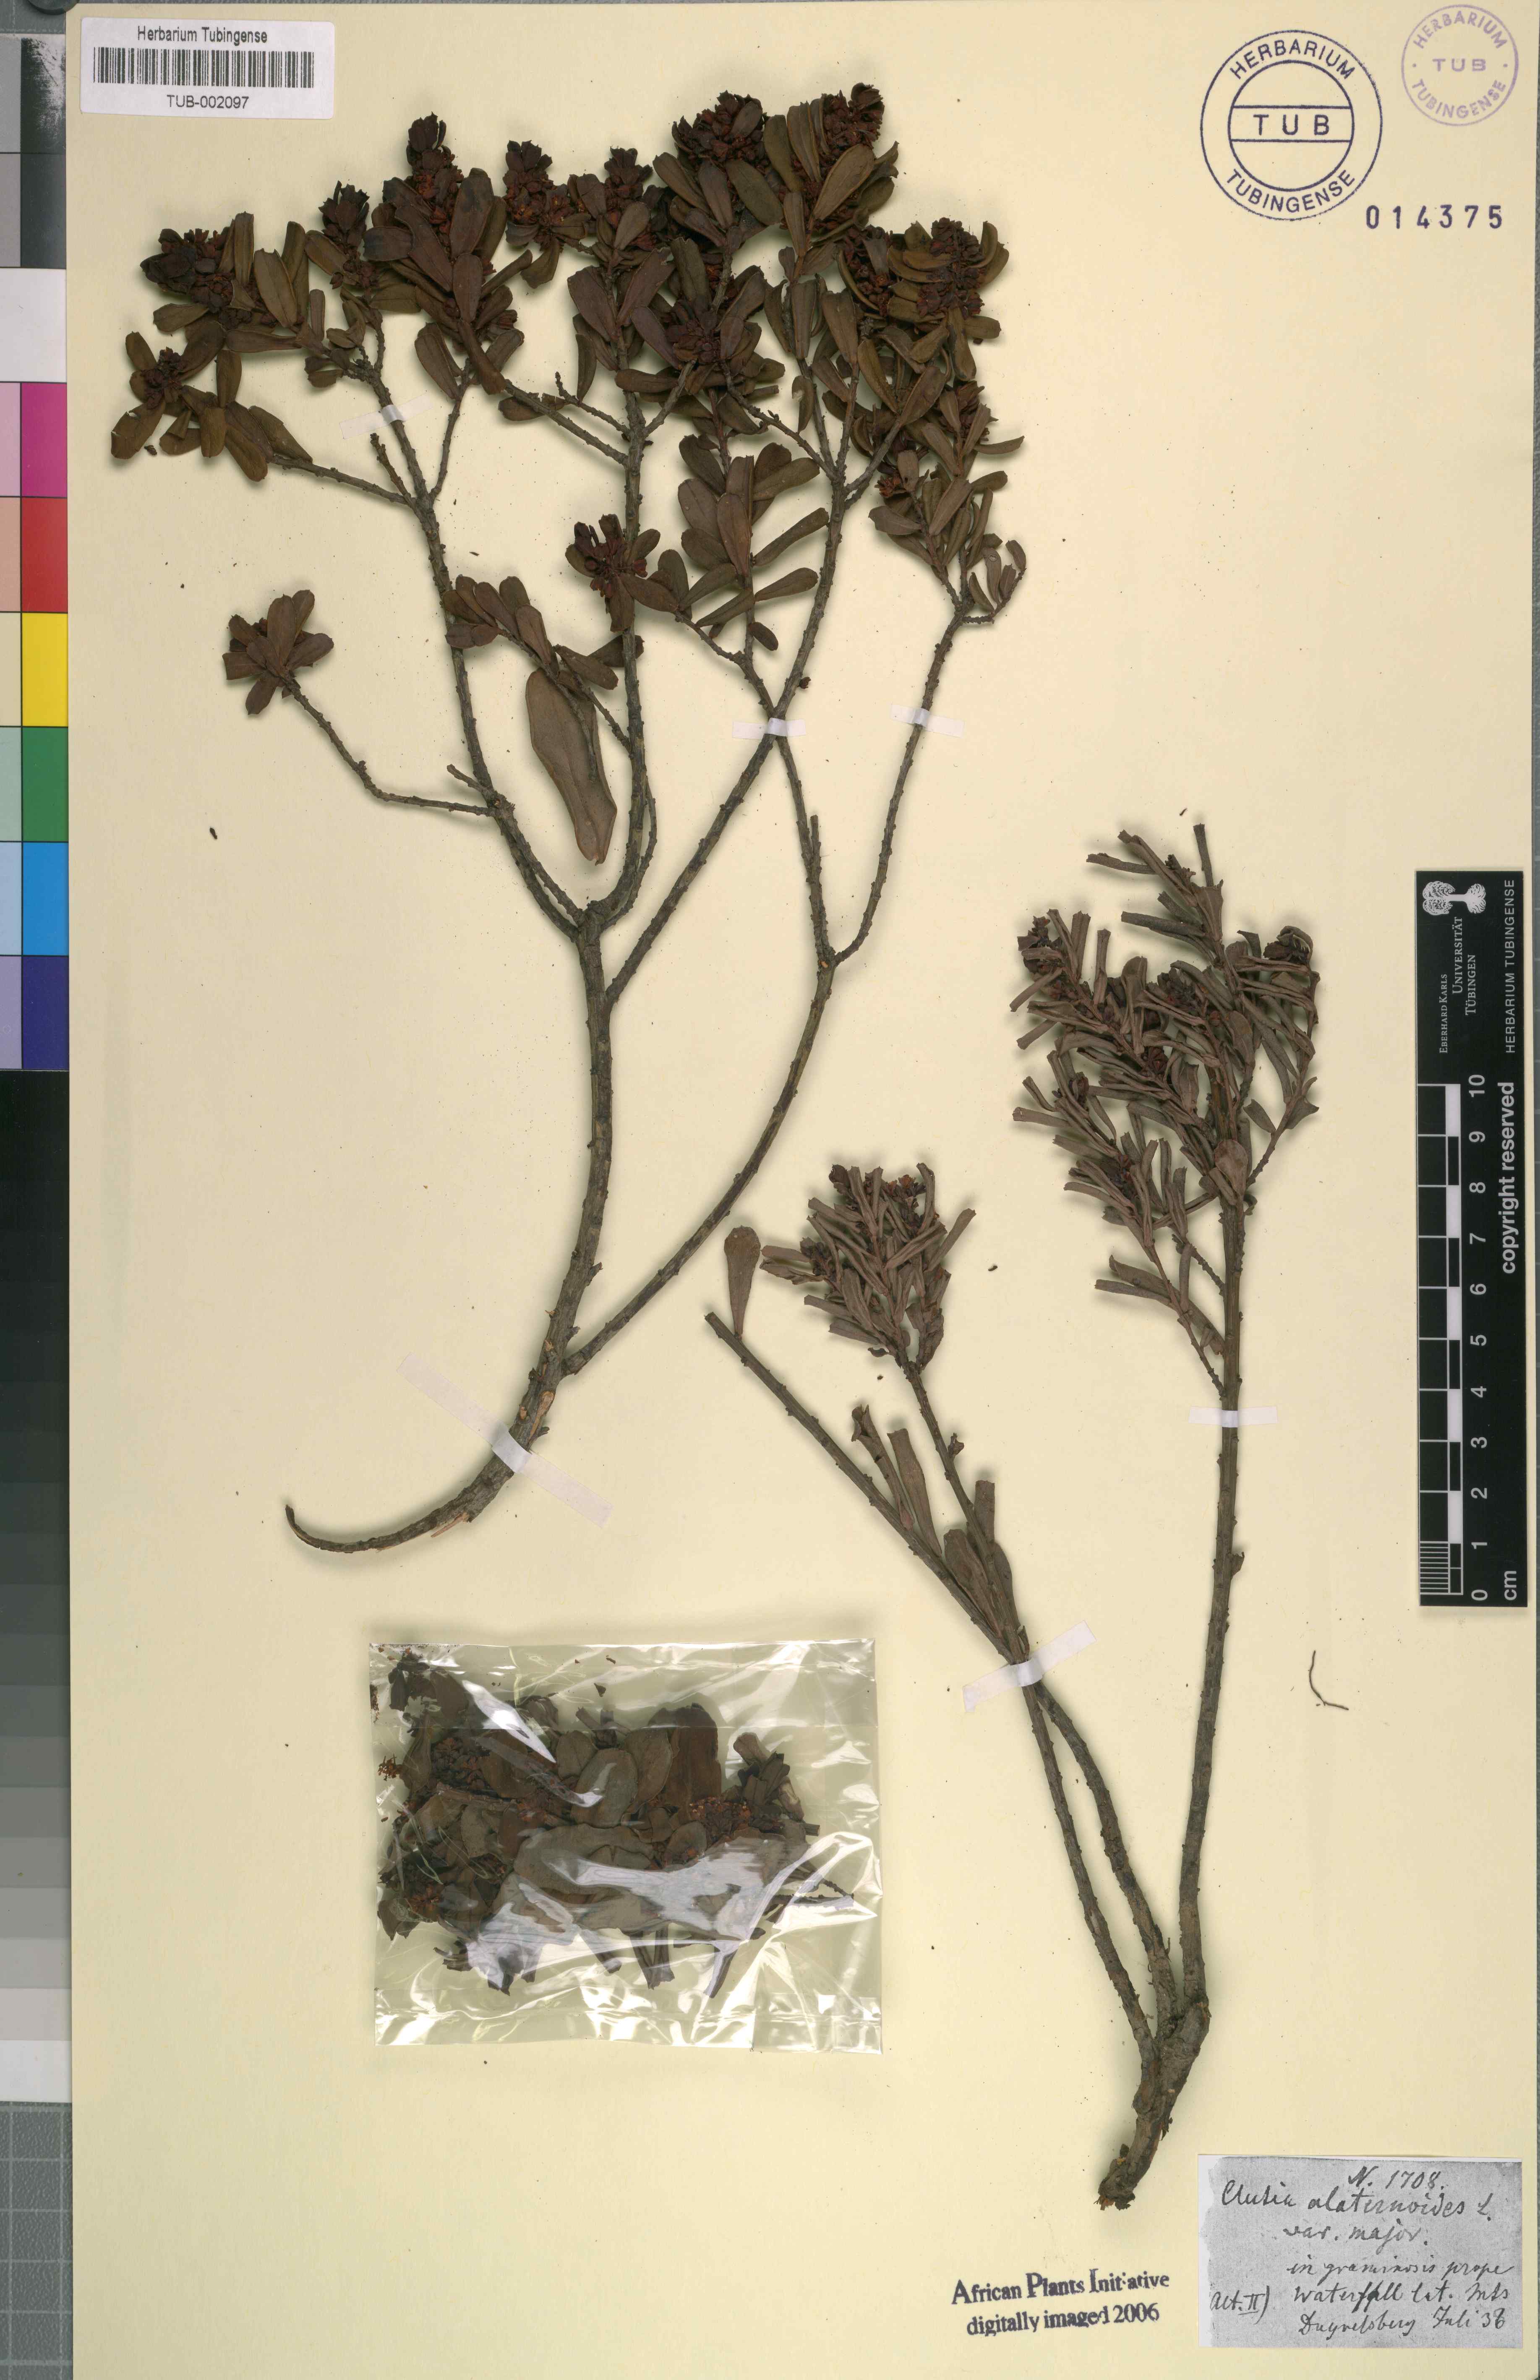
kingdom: Plantae
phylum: Tracheophyta
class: Magnoliopsida
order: Malpighiales
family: Peraceae
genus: Clutia
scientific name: Clutia alaternoides
